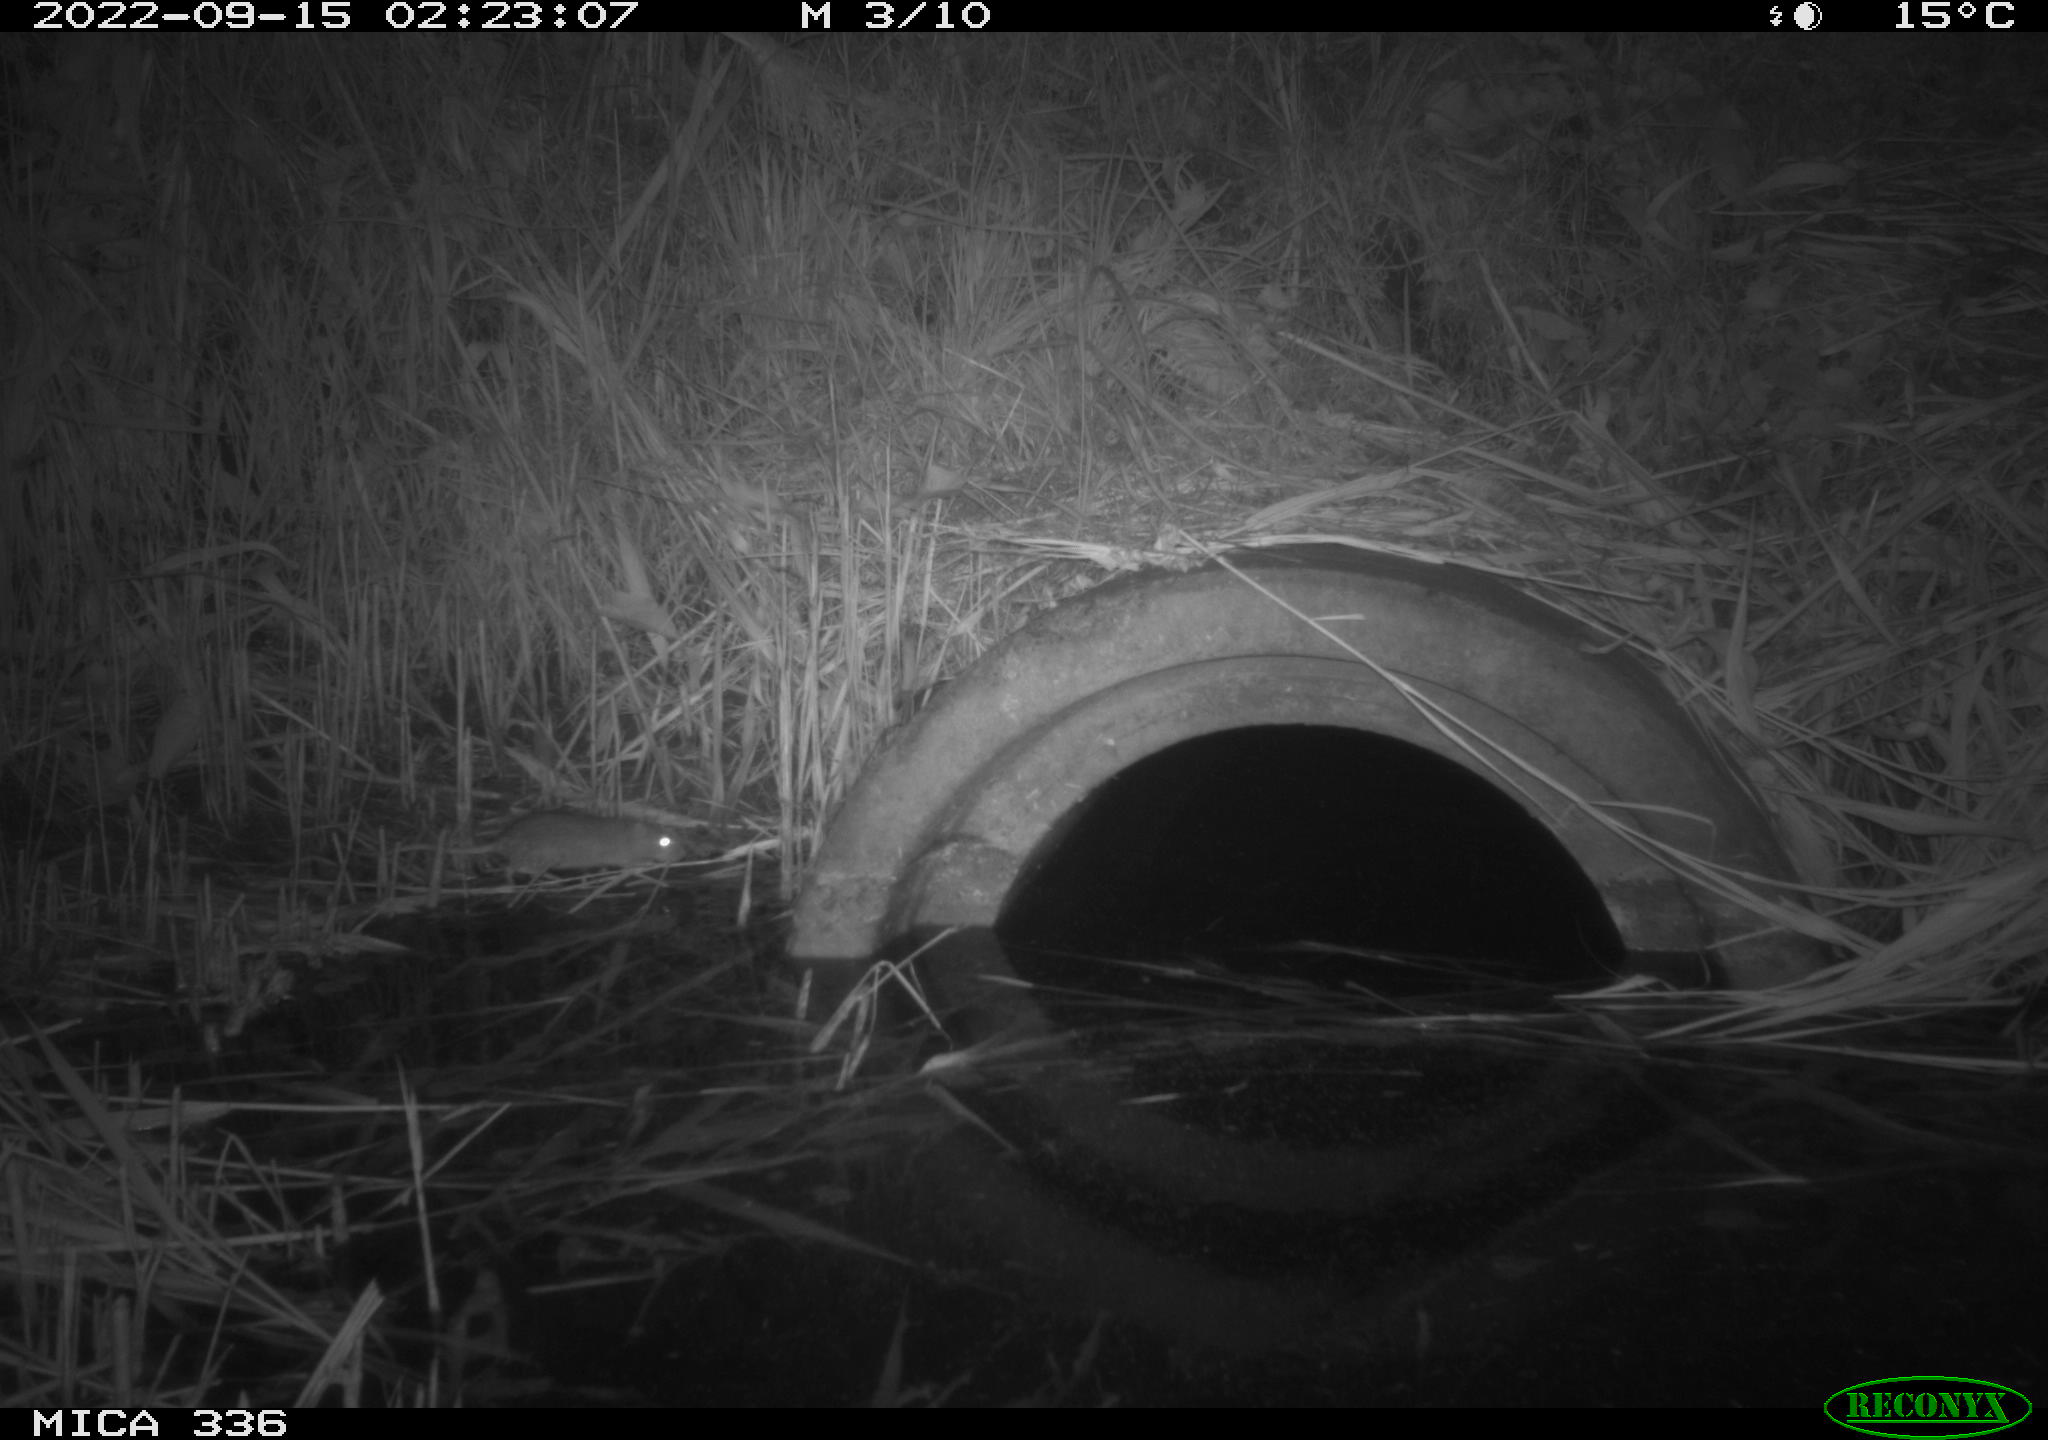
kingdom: Animalia
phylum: Chordata
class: Mammalia
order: Rodentia
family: Muridae
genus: Rattus
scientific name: Rattus norvegicus
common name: Brown rat
